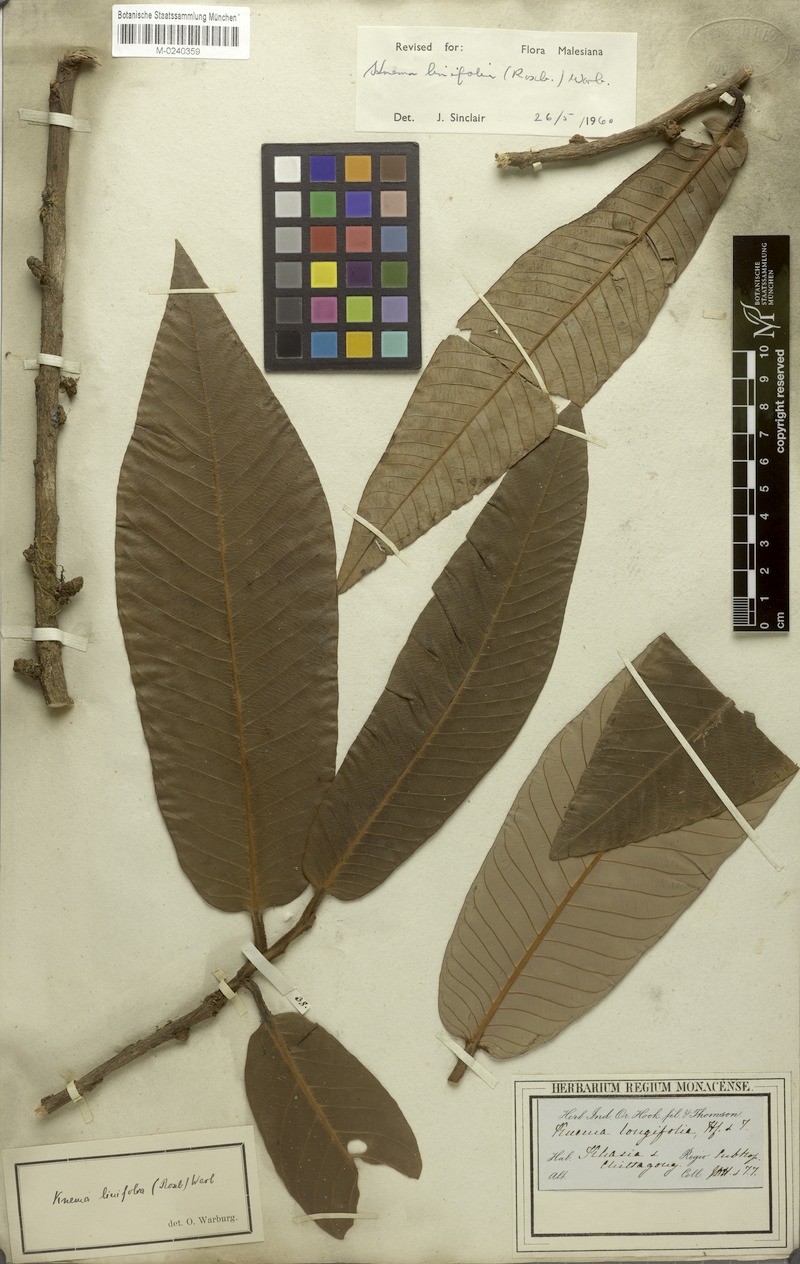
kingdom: Plantae
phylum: Tracheophyta
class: Magnoliopsida
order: Magnoliales
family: Myristicaceae
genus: Knema
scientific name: Knema linifolia
